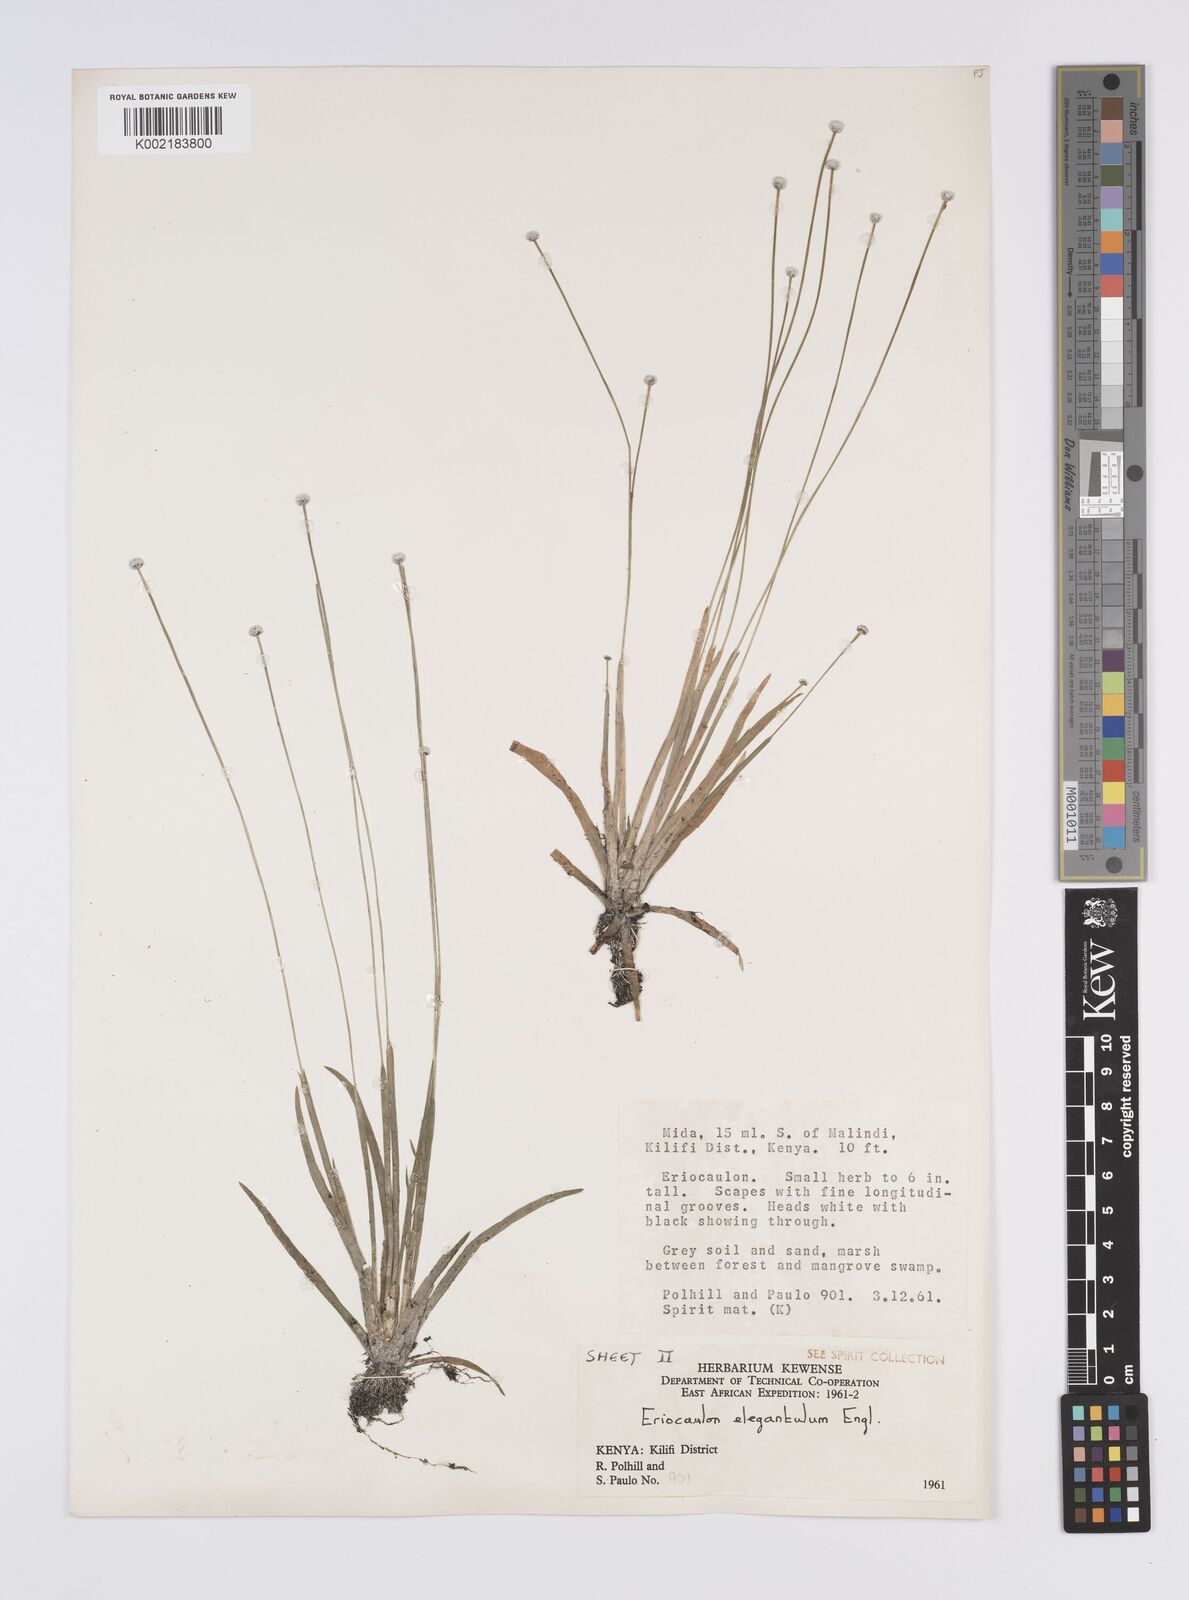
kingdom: Plantae
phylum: Tracheophyta
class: Liliopsida
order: Poales
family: Eriocaulaceae
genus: Eriocaulon
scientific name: Eriocaulon elegantulum
